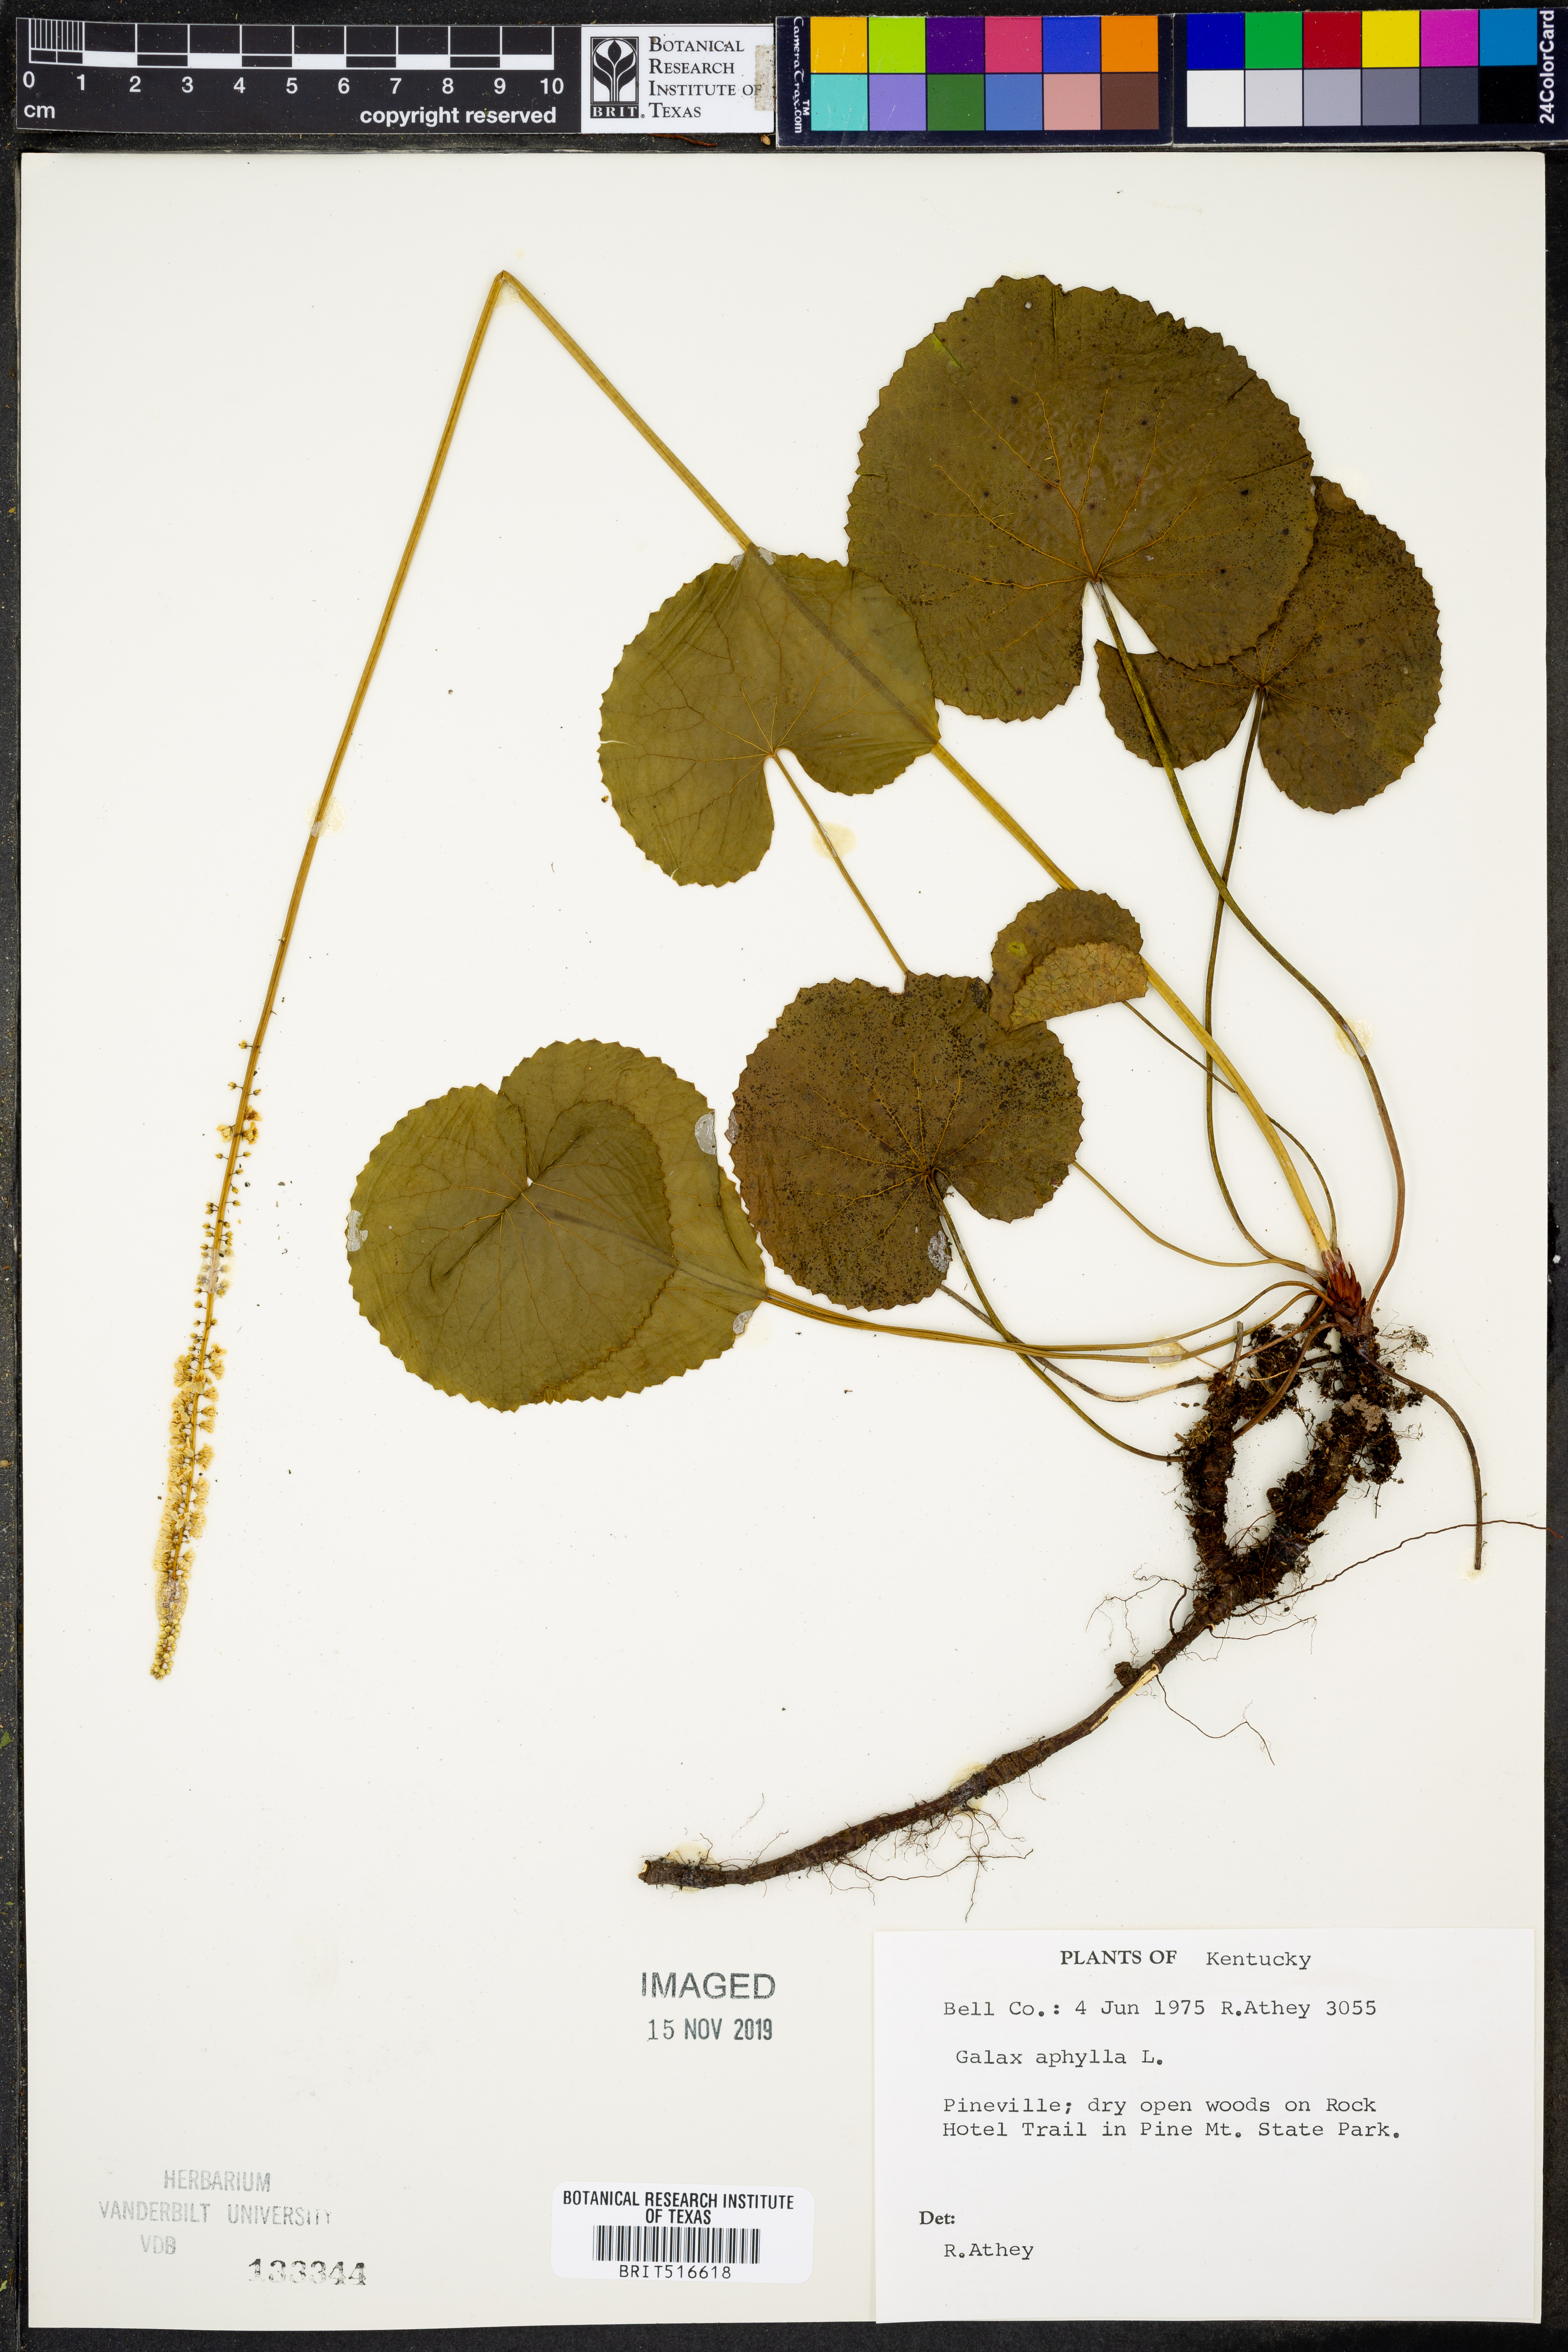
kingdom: Plantae
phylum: Tracheophyta
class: Magnoliopsida
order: Boraginales
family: Hydrophyllaceae
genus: Nemophila
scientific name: Nemophila aphylla
